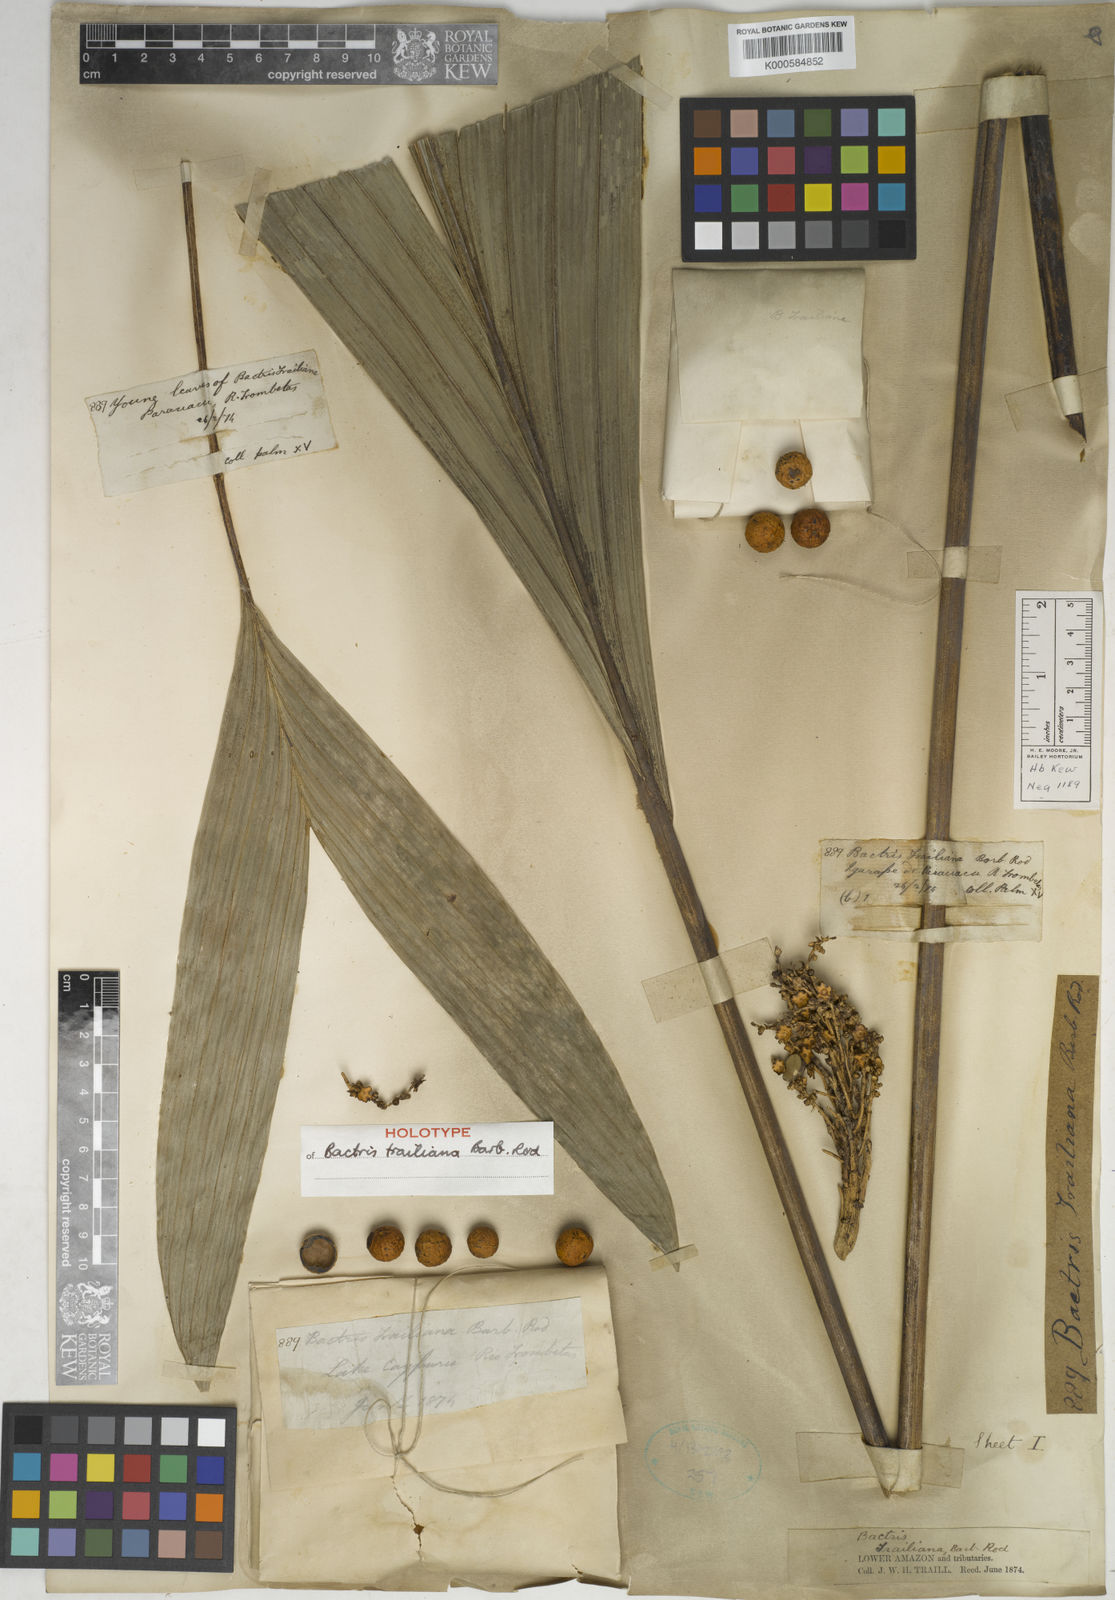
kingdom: Plantae
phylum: Tracheophyta
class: Liliopsida
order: Arecales
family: Arecaceae
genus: Bactris
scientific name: Bactris acanthocarpa
